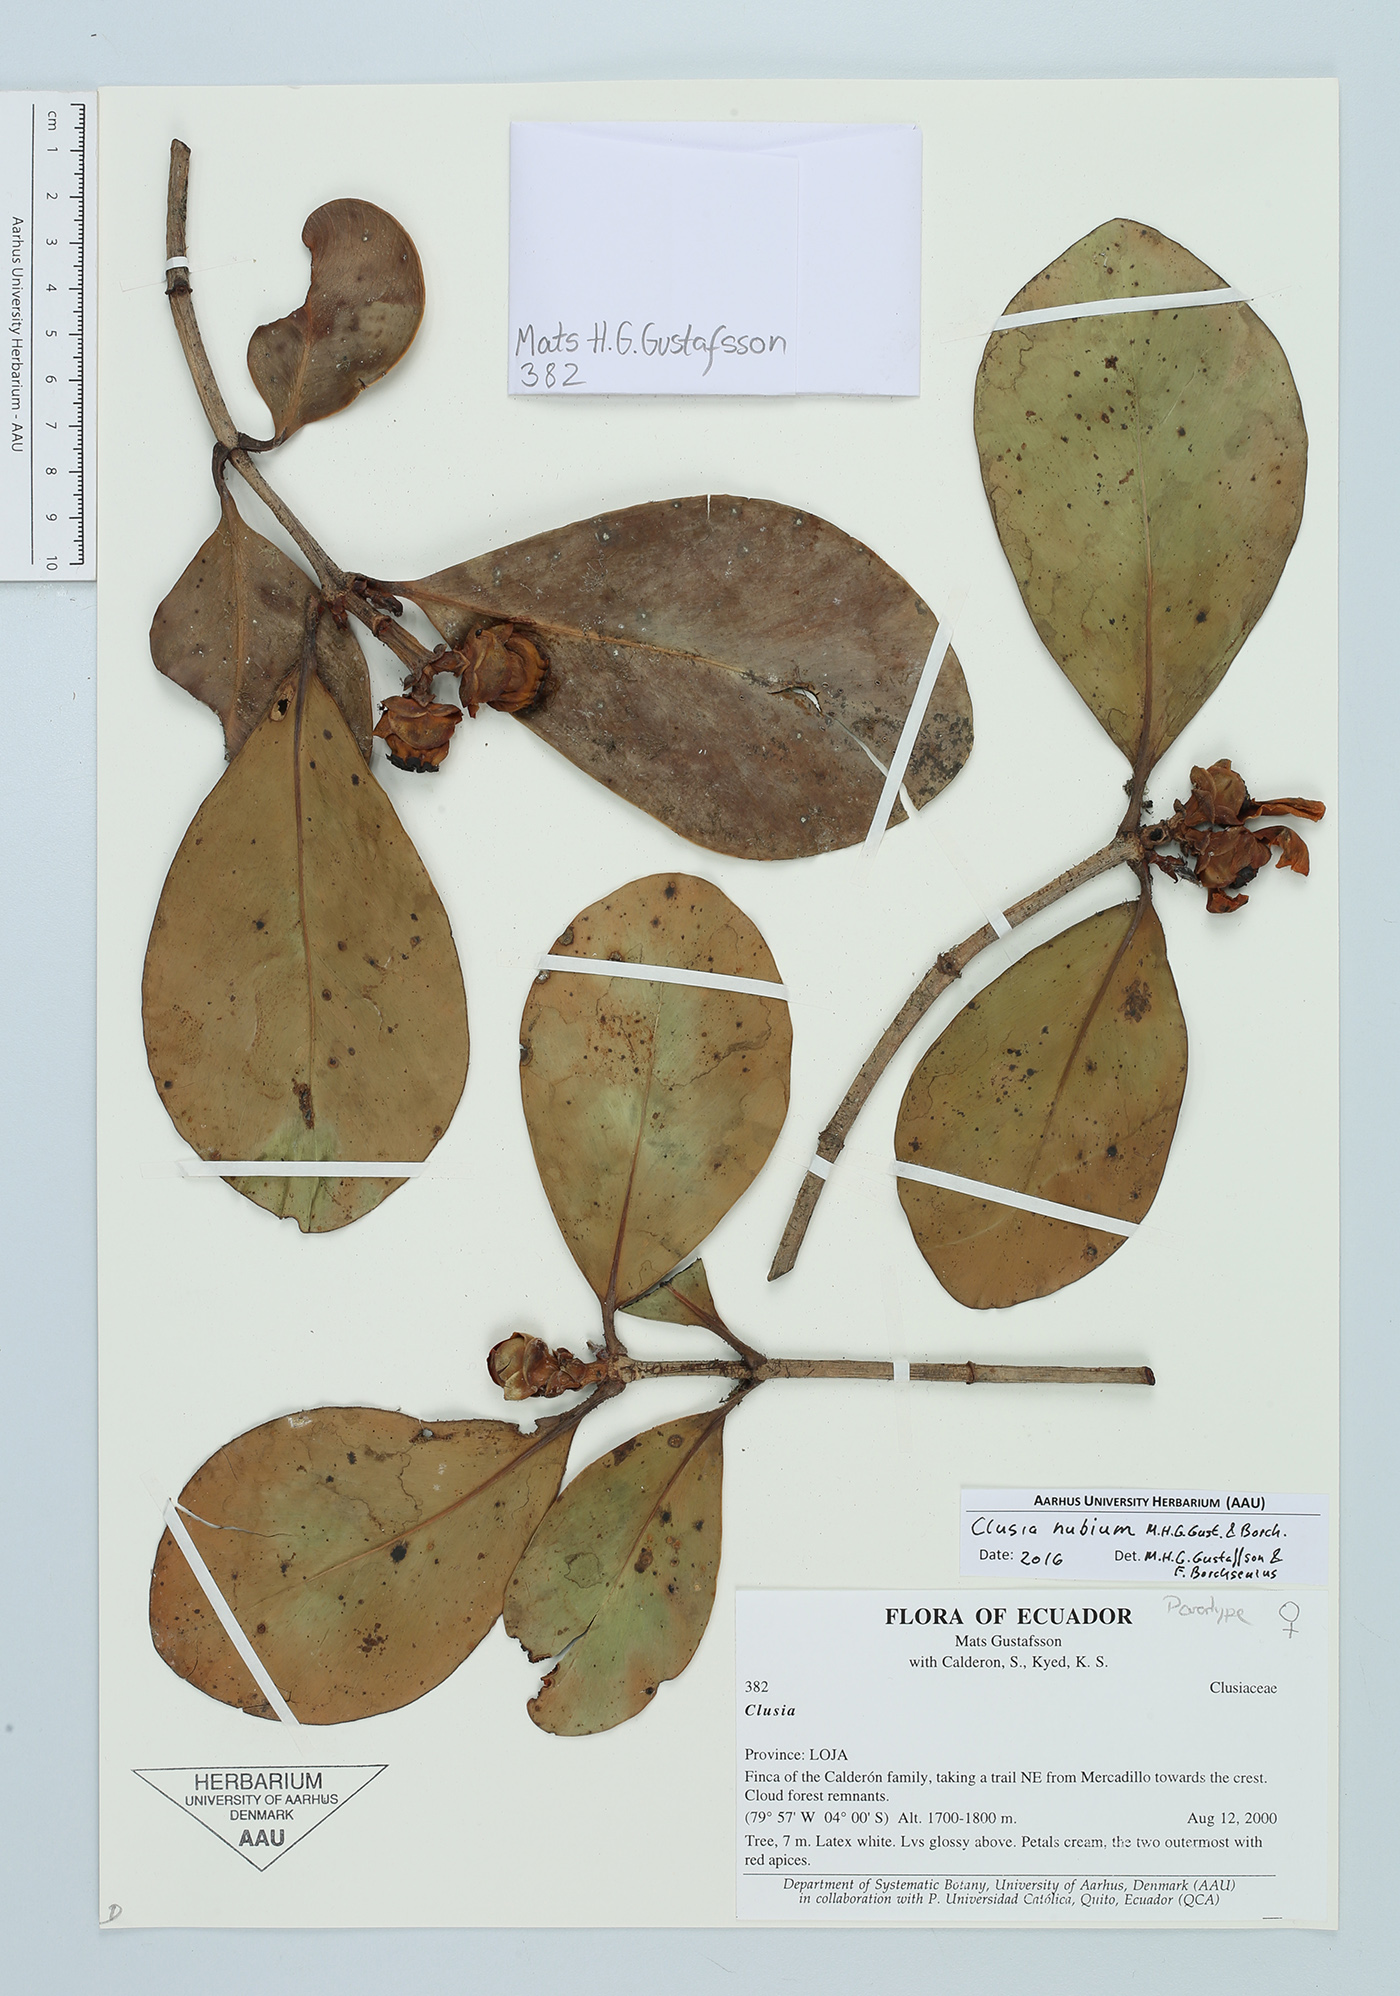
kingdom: Plantae
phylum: Tracheophyta
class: Magnoliopsida
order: Malpighiales
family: Clusiaceae
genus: Clusia
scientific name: Clusia nubium
